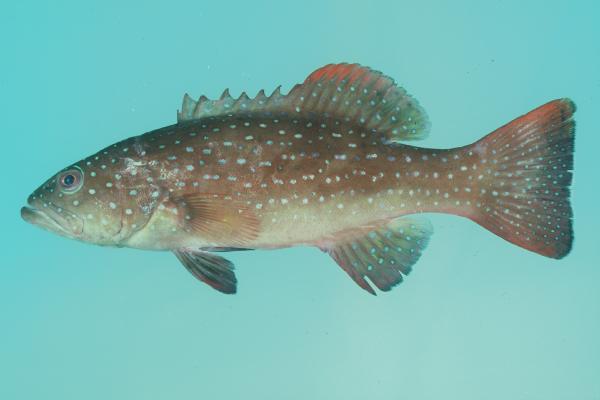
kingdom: Animalia
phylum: Chordata
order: Perciformes
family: Serranidae
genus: Plectropomus
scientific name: Plectropomus leopardus
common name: Coral trout
